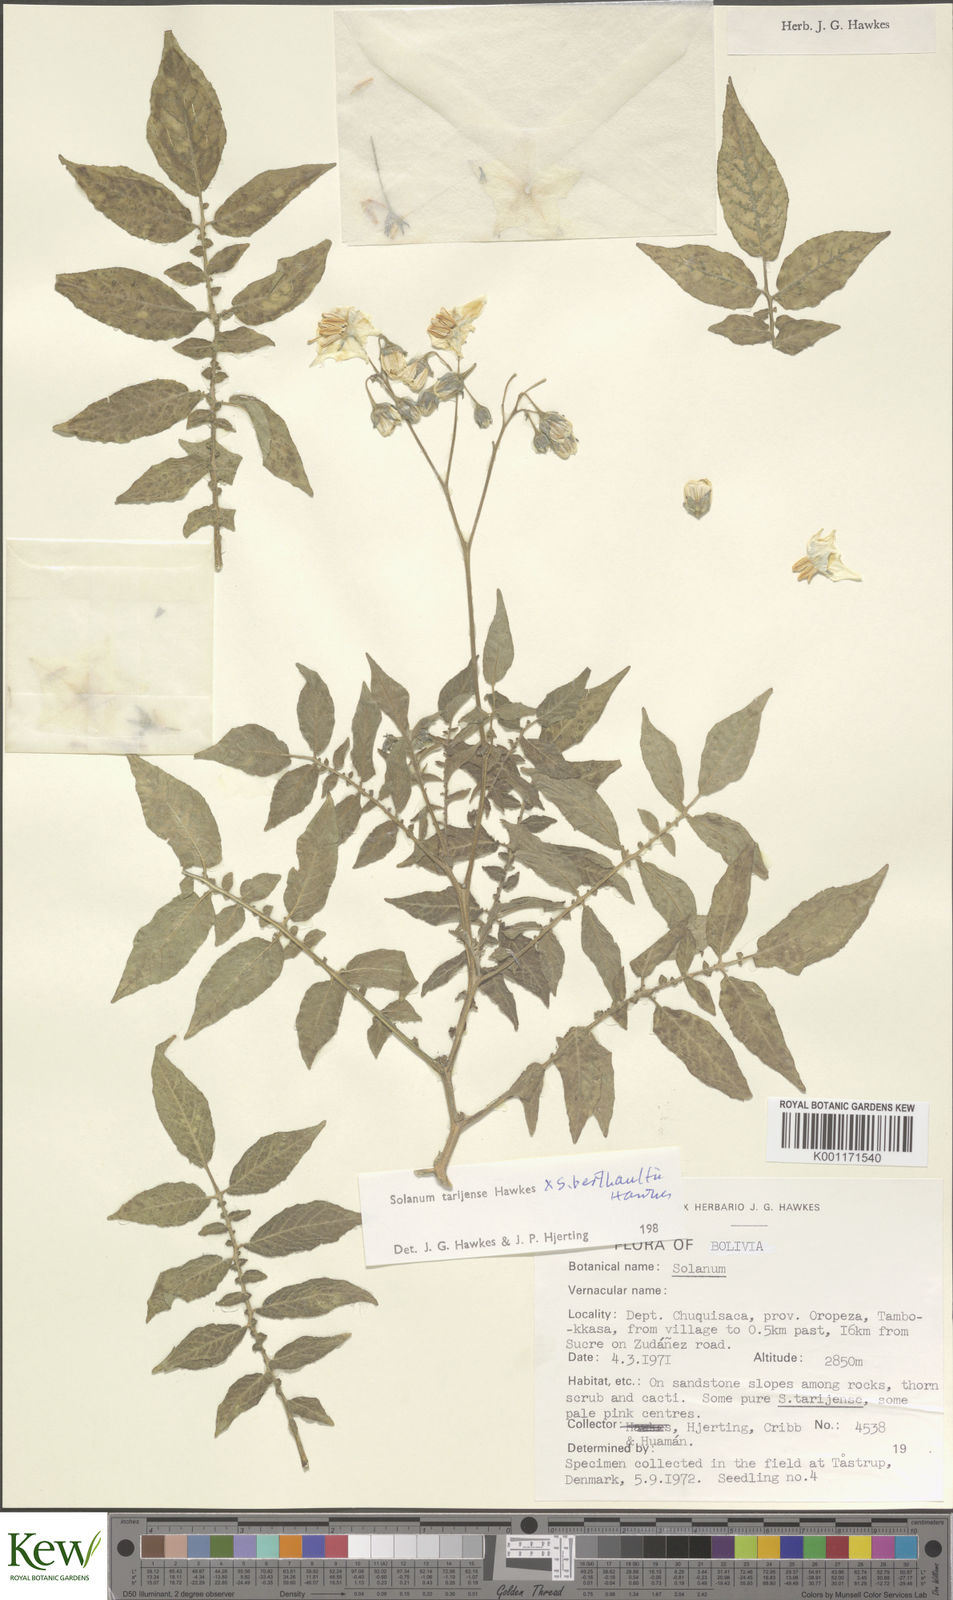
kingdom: Plantae
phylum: Tracheophyta
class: Magnoliopsida
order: Solanales
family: Solanaceae
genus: Solanum
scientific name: Solanum tarijense
